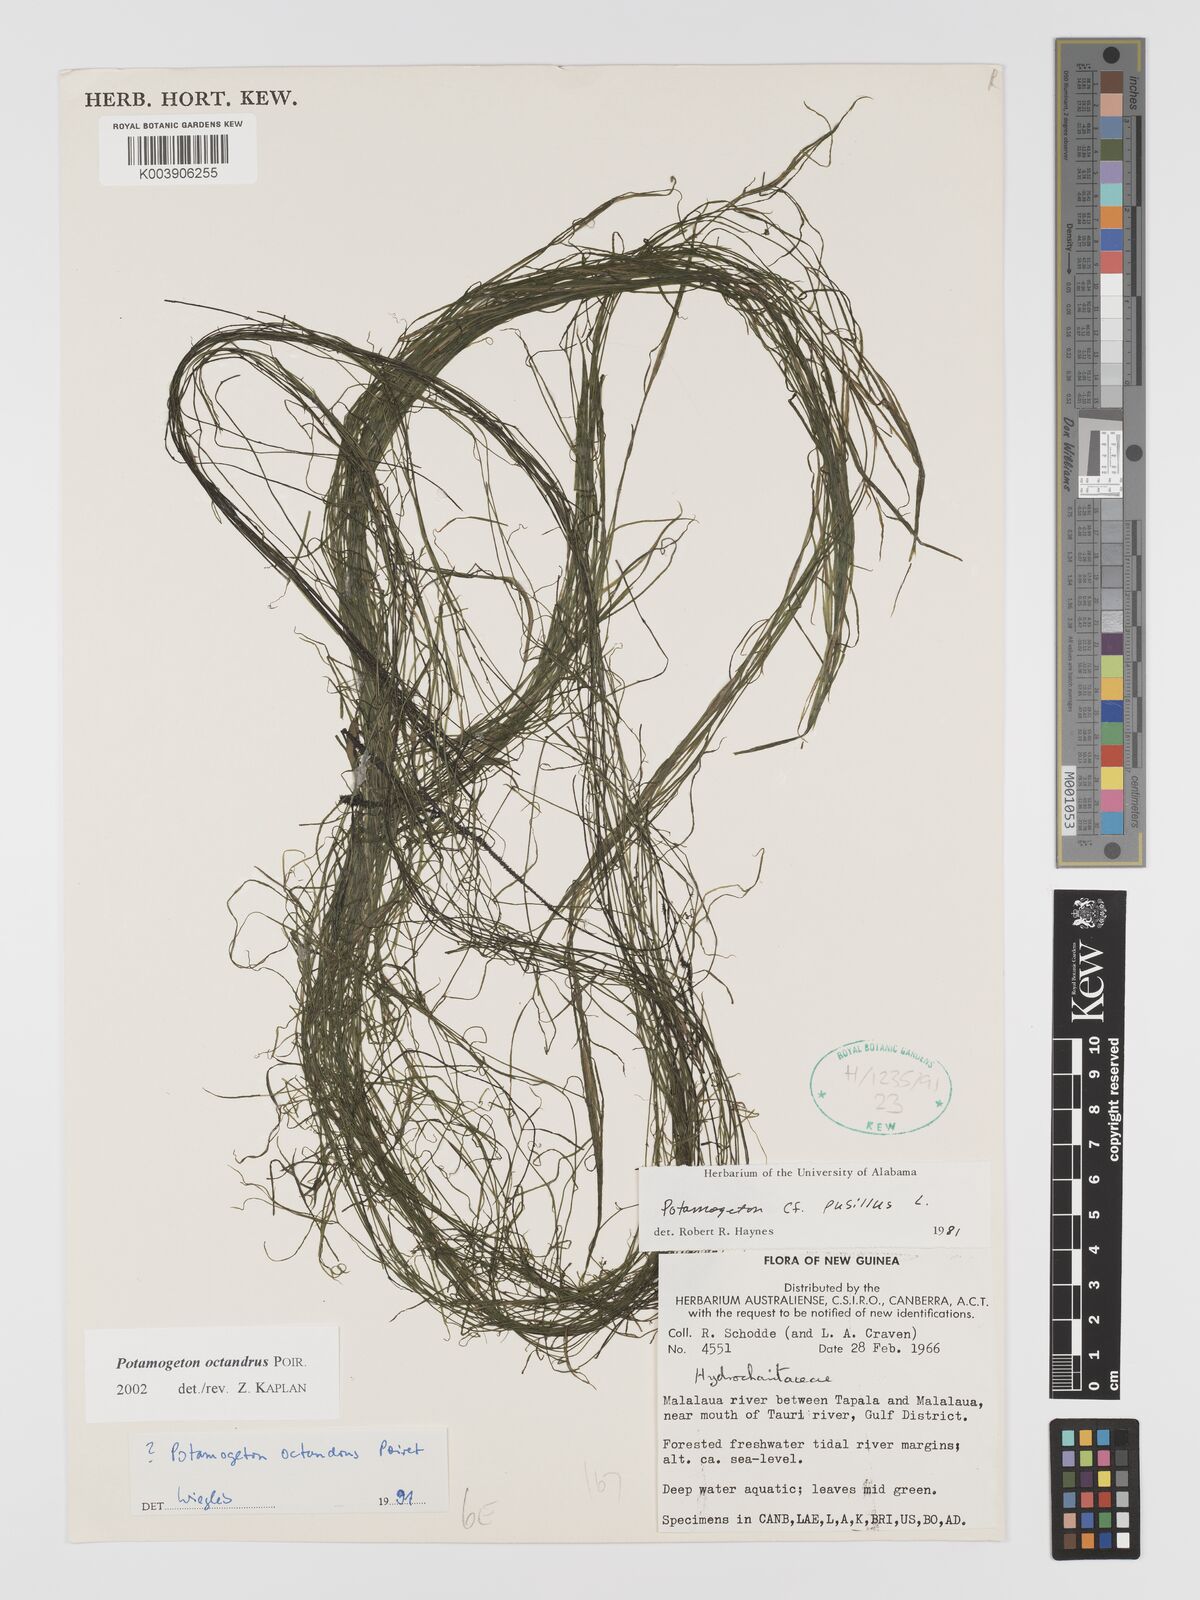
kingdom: Plantae
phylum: Tracheophyta
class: Liliopsida
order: Alismatales
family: Potamogetonaceae
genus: Potamogeton
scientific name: Potamogeton octandrus
